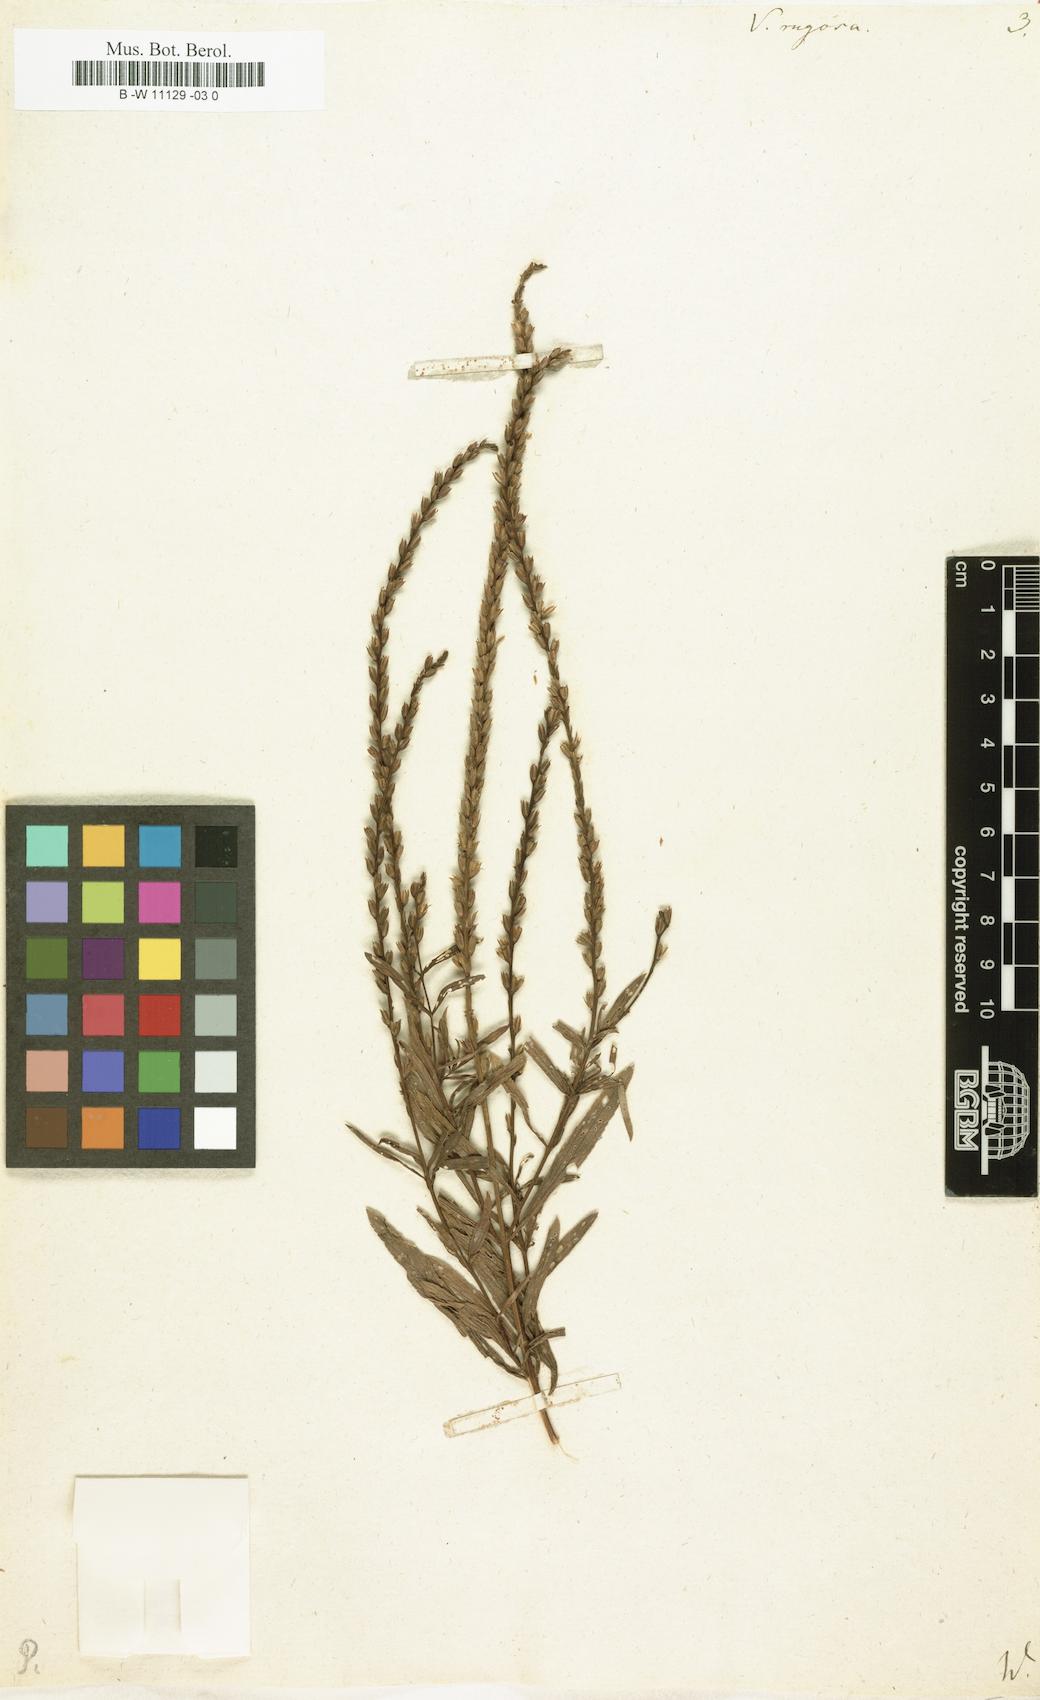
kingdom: Plantae
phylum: Tracheophyta
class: Magnoliopsida
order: Lamiales
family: Verbenaceae
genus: Verbena
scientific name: Verbena rugosa
